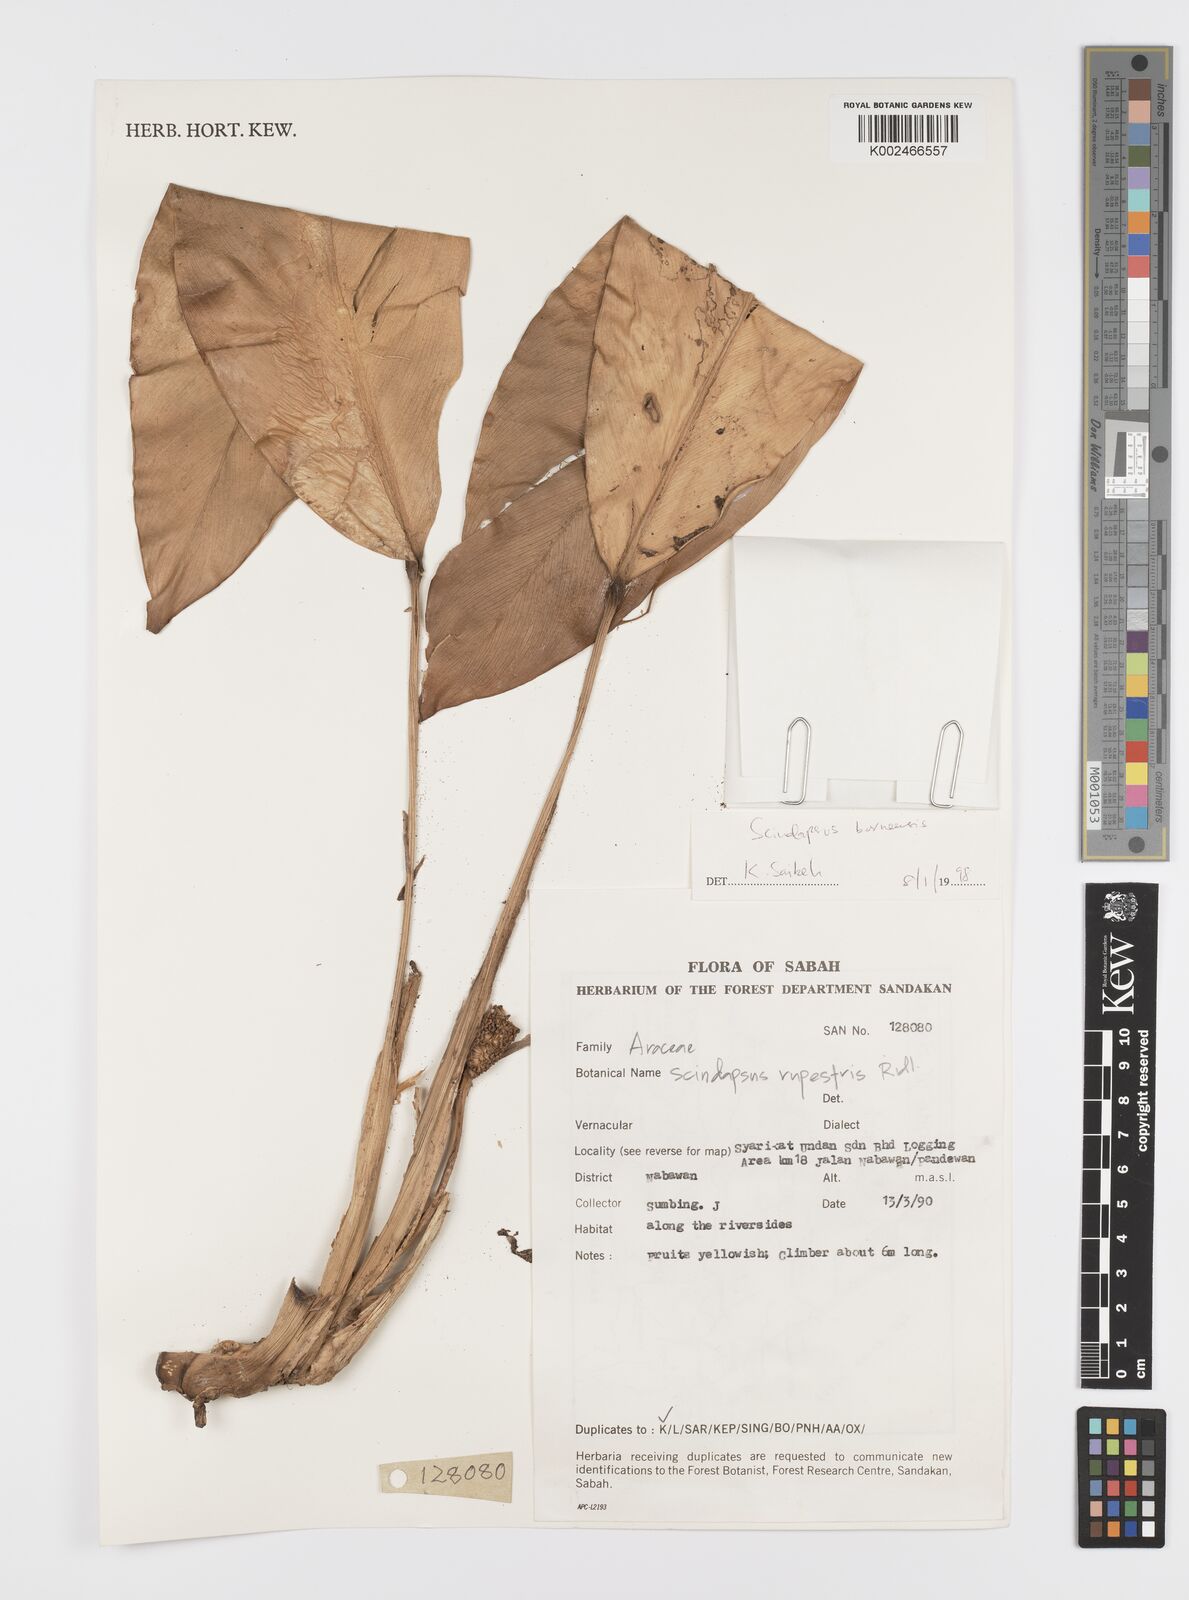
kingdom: Plantae
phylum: Tracheophyta
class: Liliopsida
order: Alismatales
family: Araceae
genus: Scindapsus
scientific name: Scindapsus coriaceus
